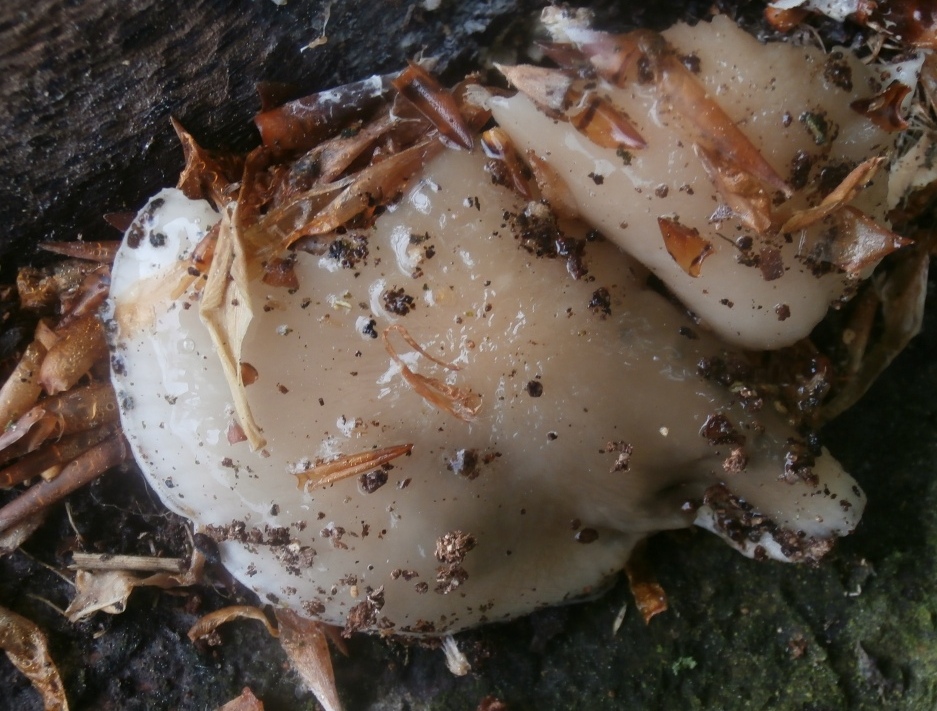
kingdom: Fungi
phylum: Basidiomycota
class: Agaricomycetes
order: Agaricales
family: Physalacriaceae
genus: Mucidula
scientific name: Mucidula mucida
